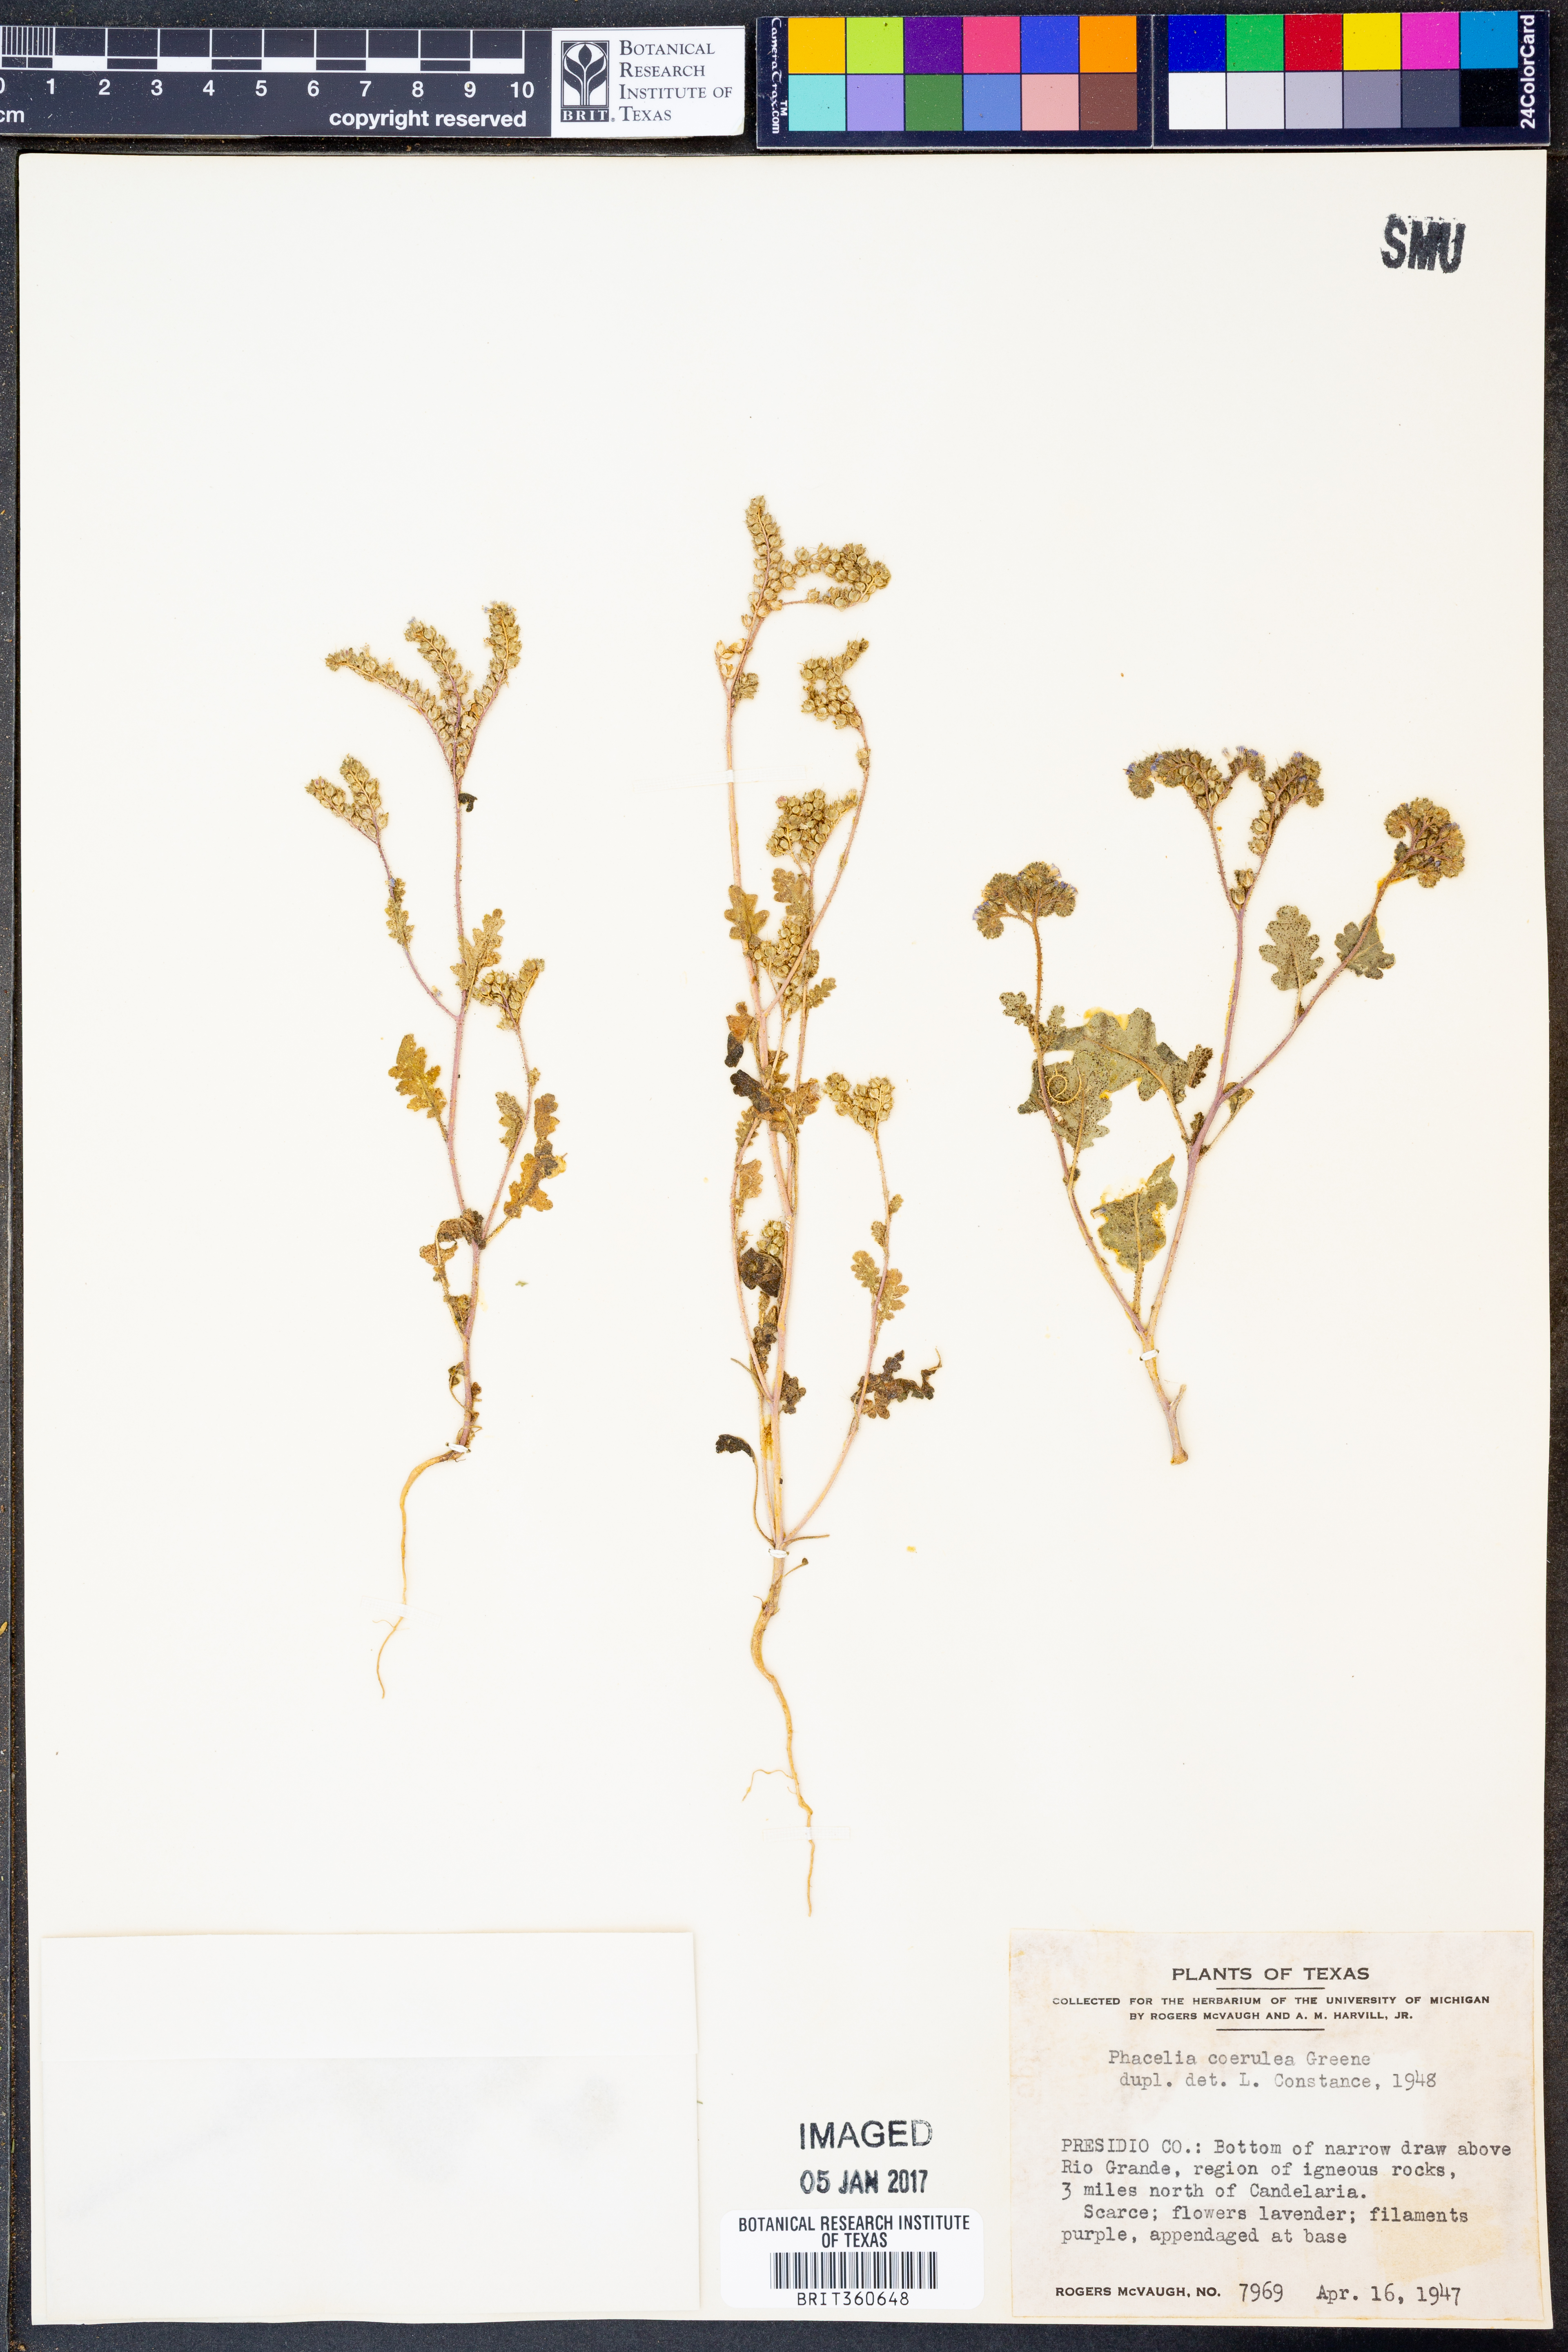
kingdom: Plantae
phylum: Tracheophyta
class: Magnoliopsida
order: Boraginales
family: Hydrophyllaceae
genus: Phacelia
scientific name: Phacelia coerulea
